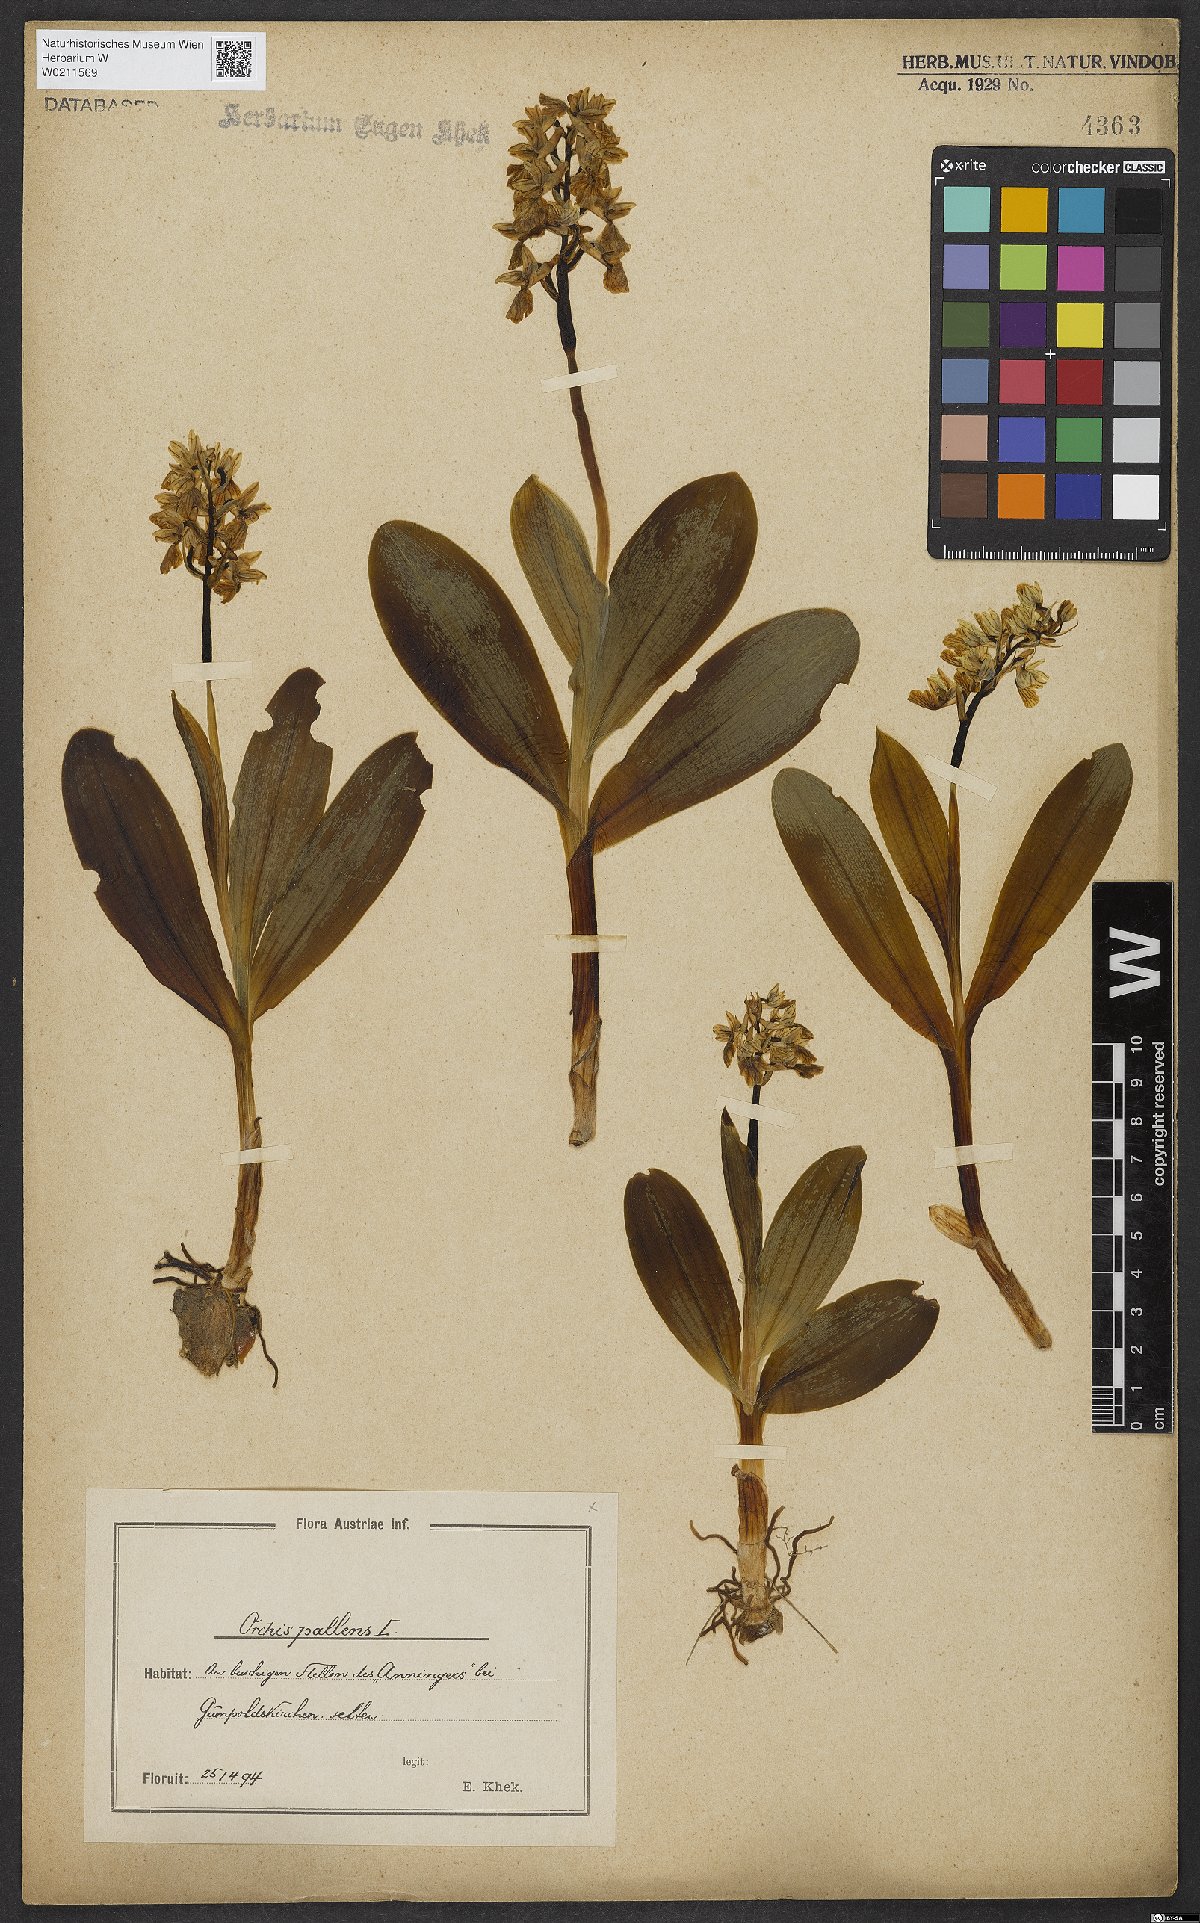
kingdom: Plantae
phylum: Tracheophyta
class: Liliopsida
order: Asparagales
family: Orchidaceae
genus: Orchis
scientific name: Orchis pallens
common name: Pale-flowered orchid
